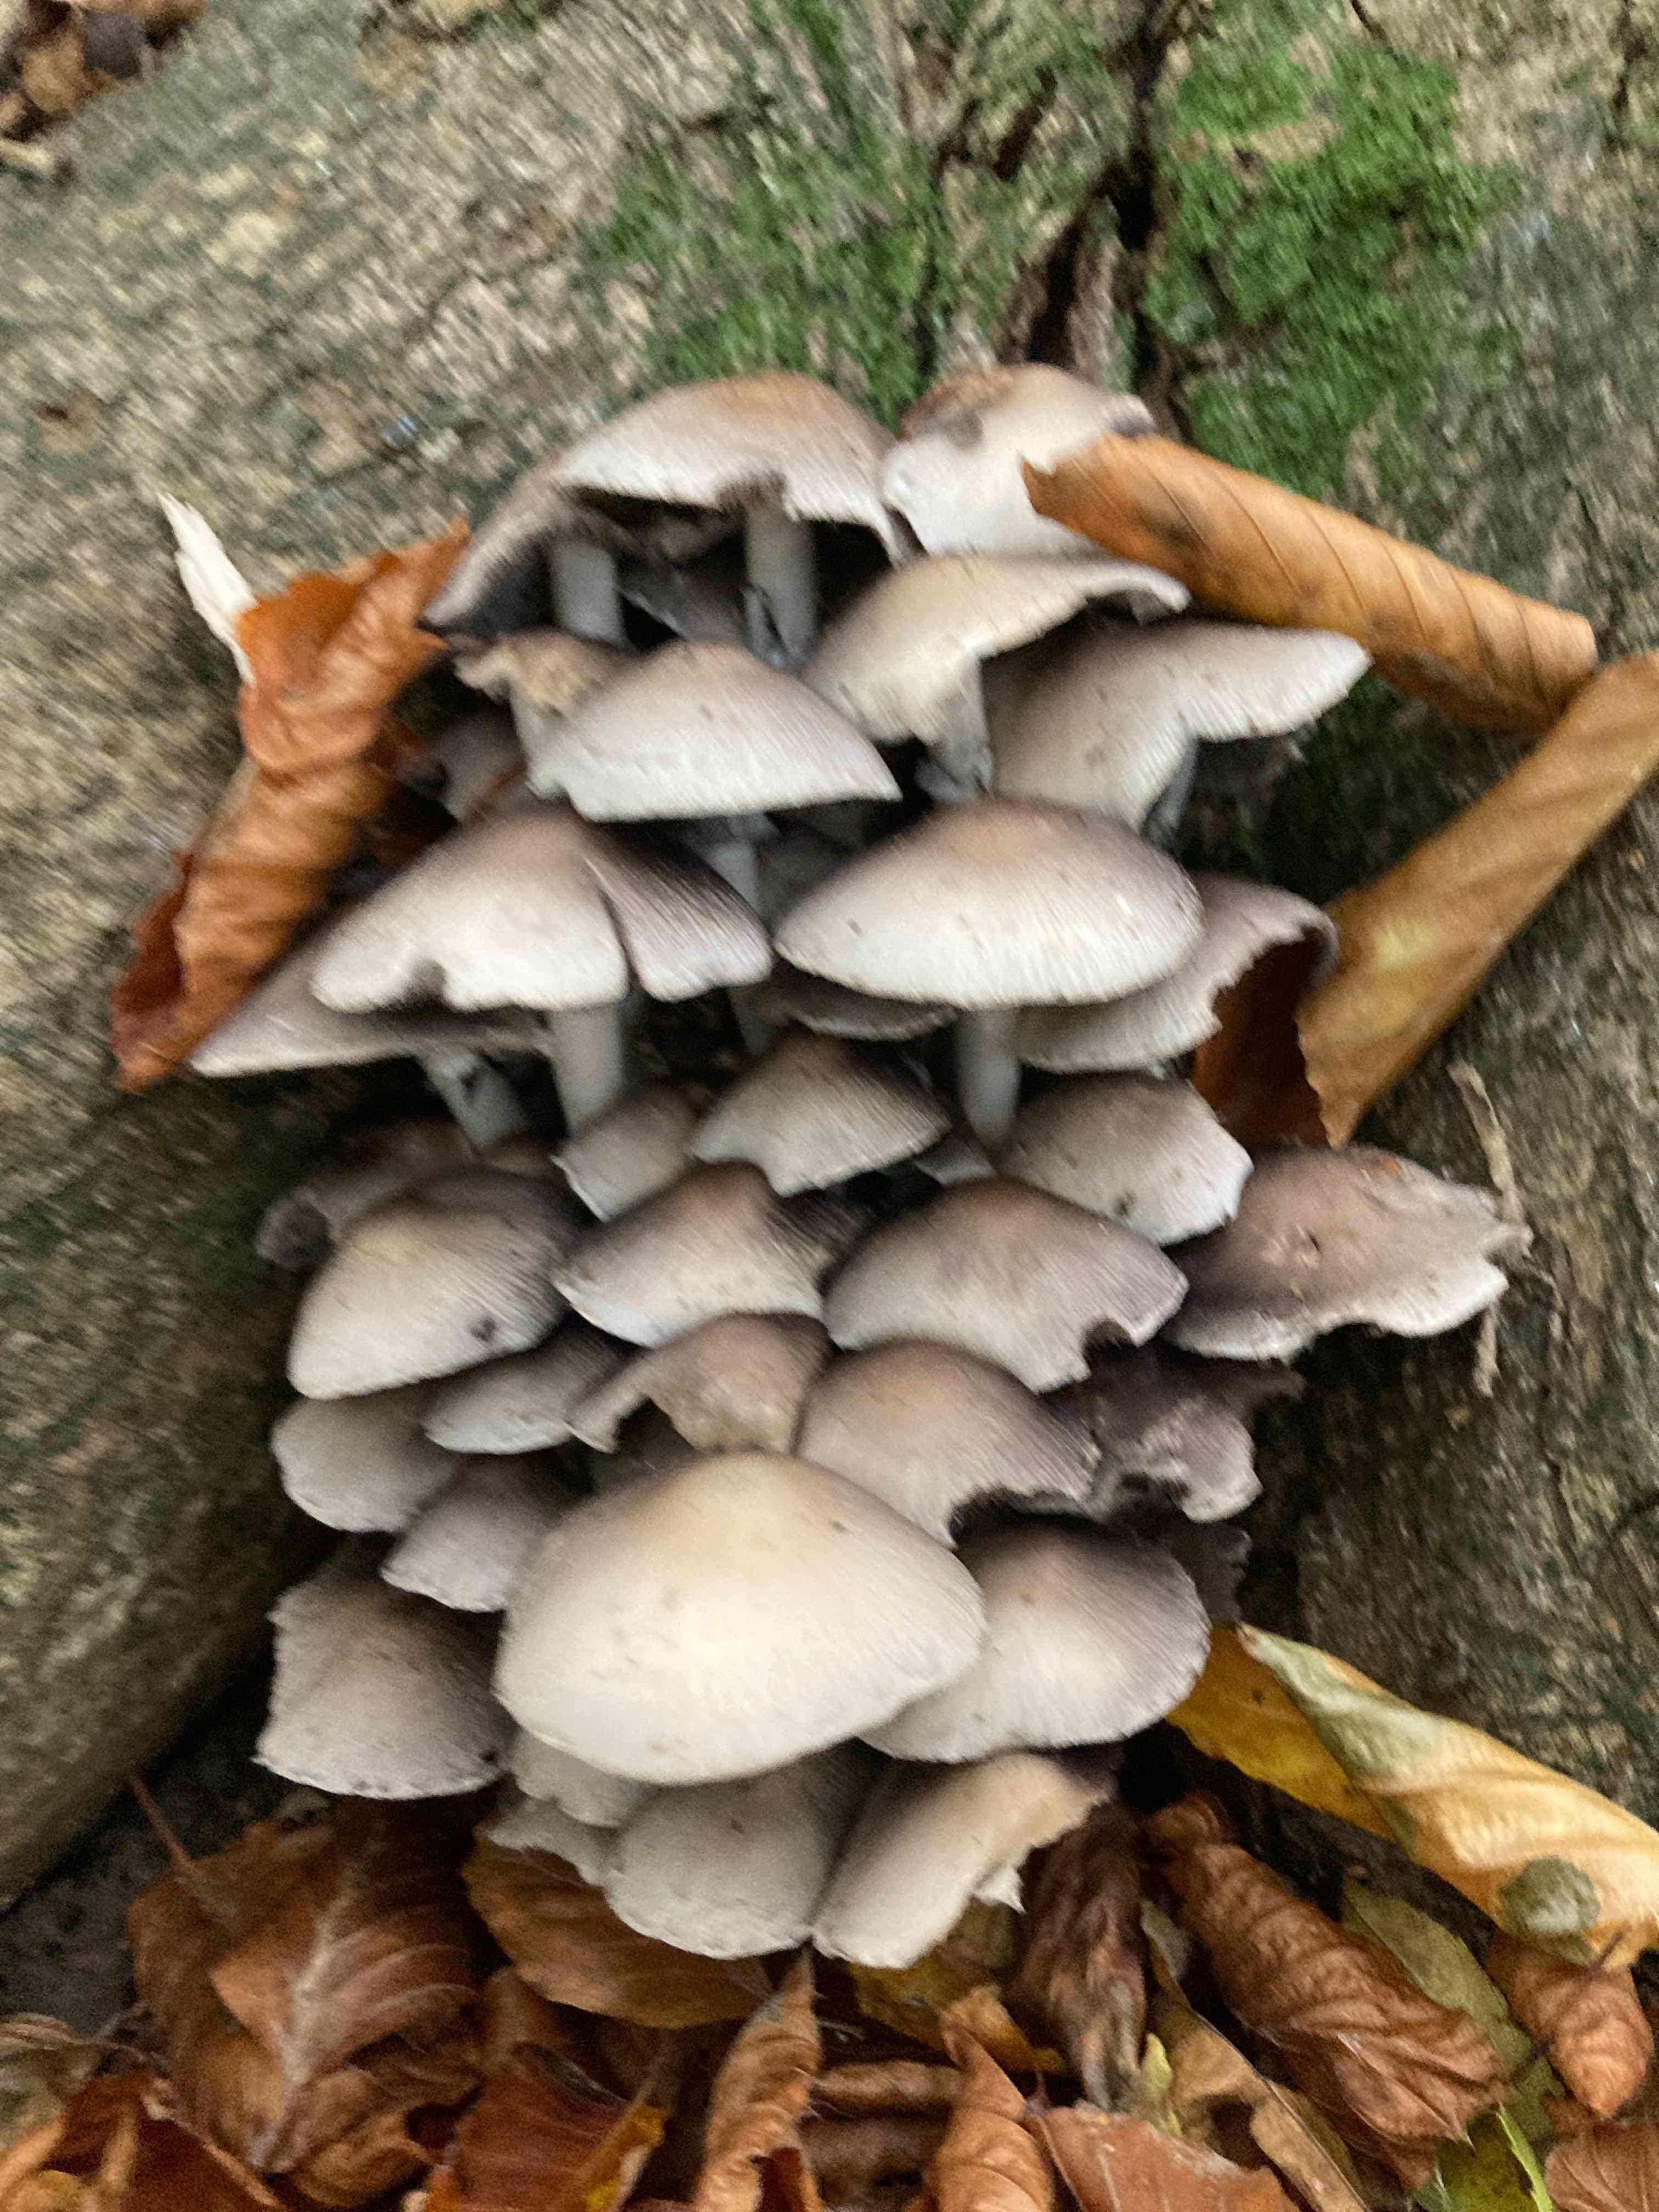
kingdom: Fungi
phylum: Basidiomycota
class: Agaricomycetes
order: Agaricales
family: Psathyrellaceae
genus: Candolleomyces
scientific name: Candolleomyces leucotephrus
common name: askehvid mørkhat
